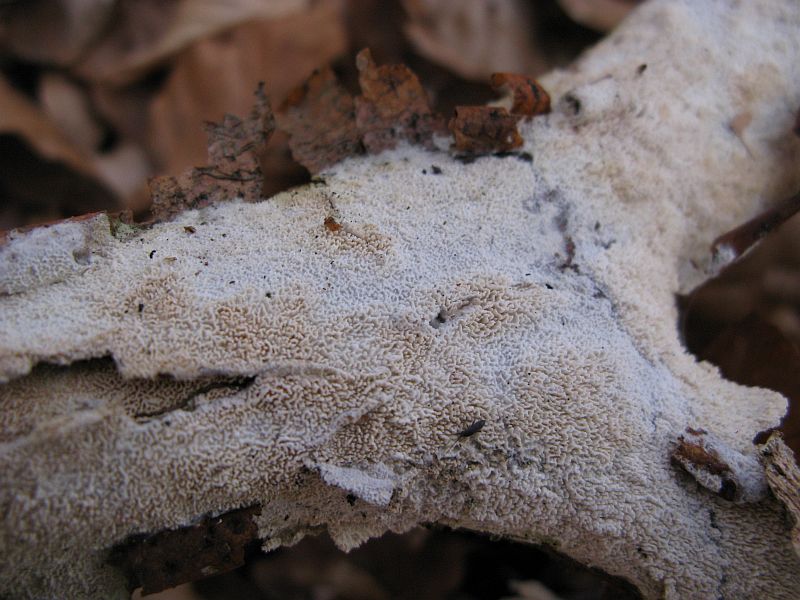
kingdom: Fungi
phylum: Basidiomycota
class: Agaricomycetes
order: Hymenochaetales
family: Schizoporaceae
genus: Schizopora
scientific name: Schizopora paradoxa
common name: hvid tandsvamp
